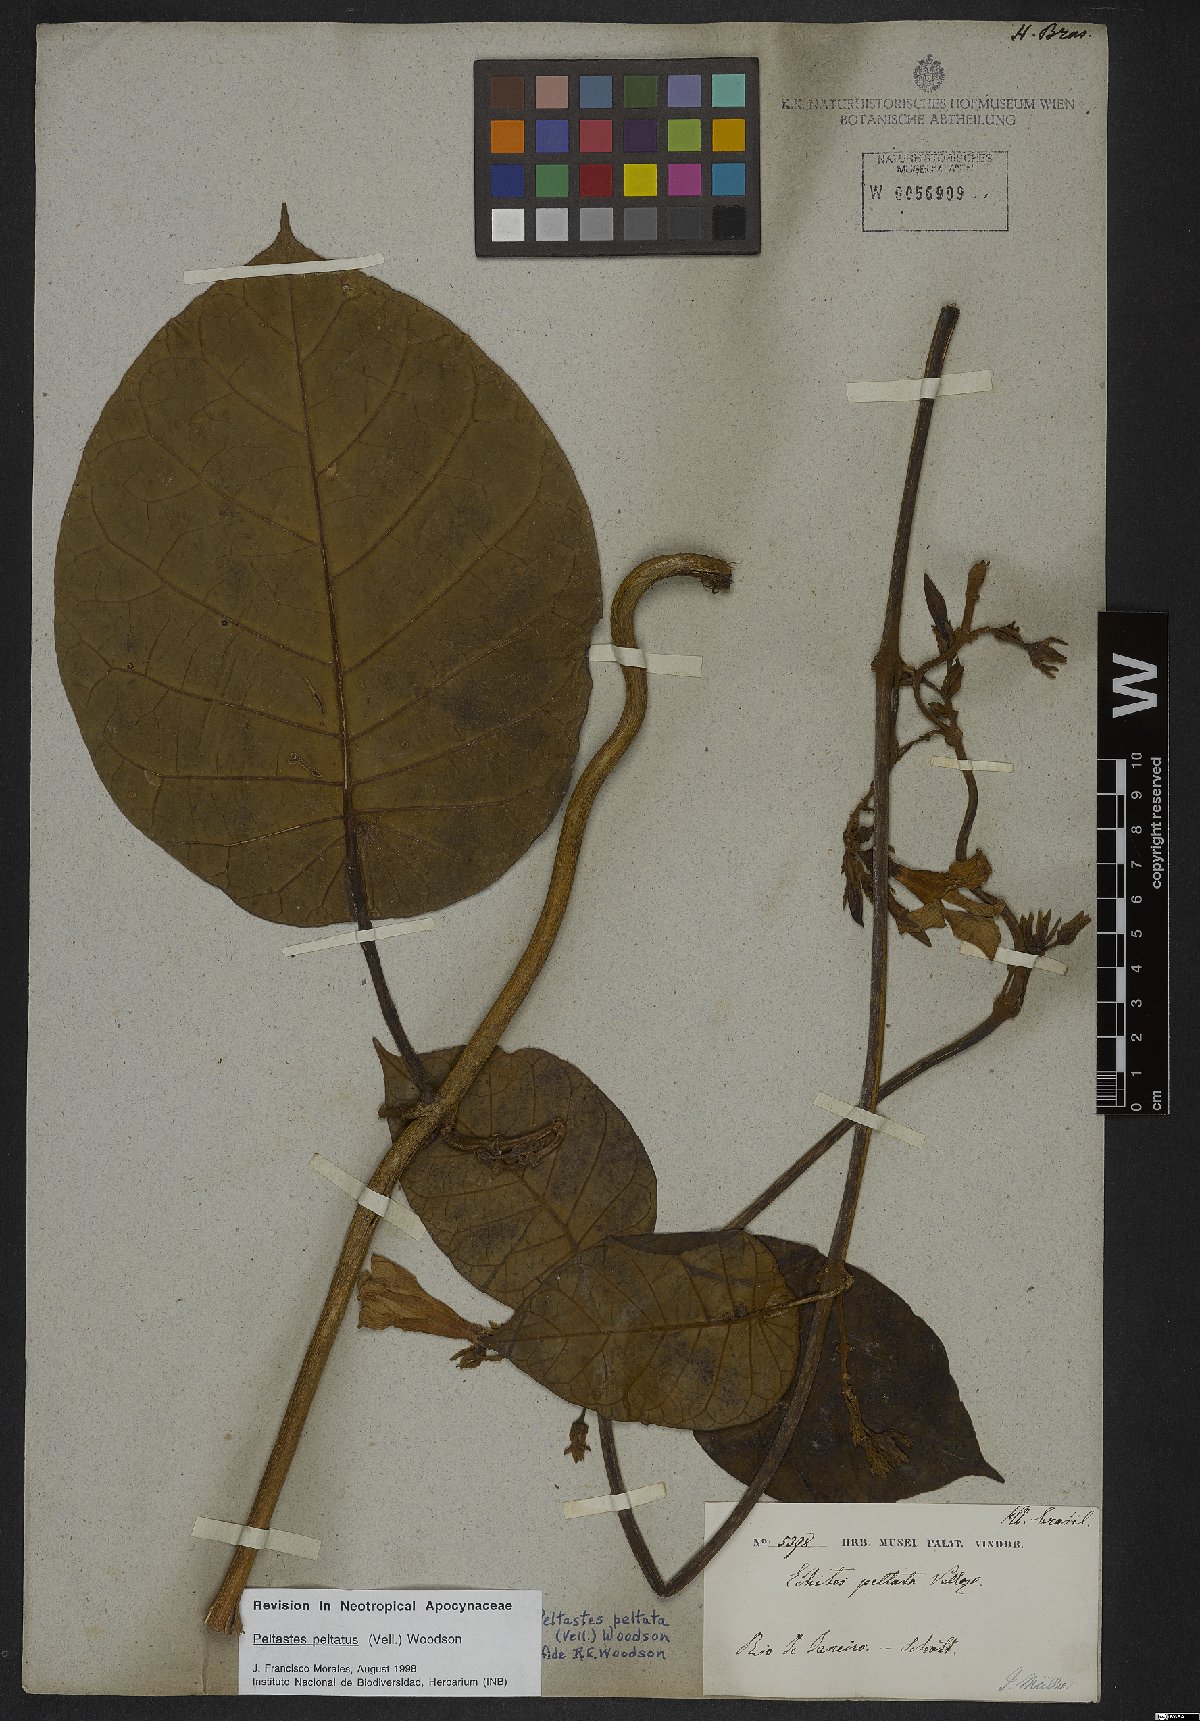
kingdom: Plantae
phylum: Tracheophyta
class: Magnoliopsida
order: Gentianales
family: Apocynaceae
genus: Macropharynx
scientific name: Macropharynx peltata
